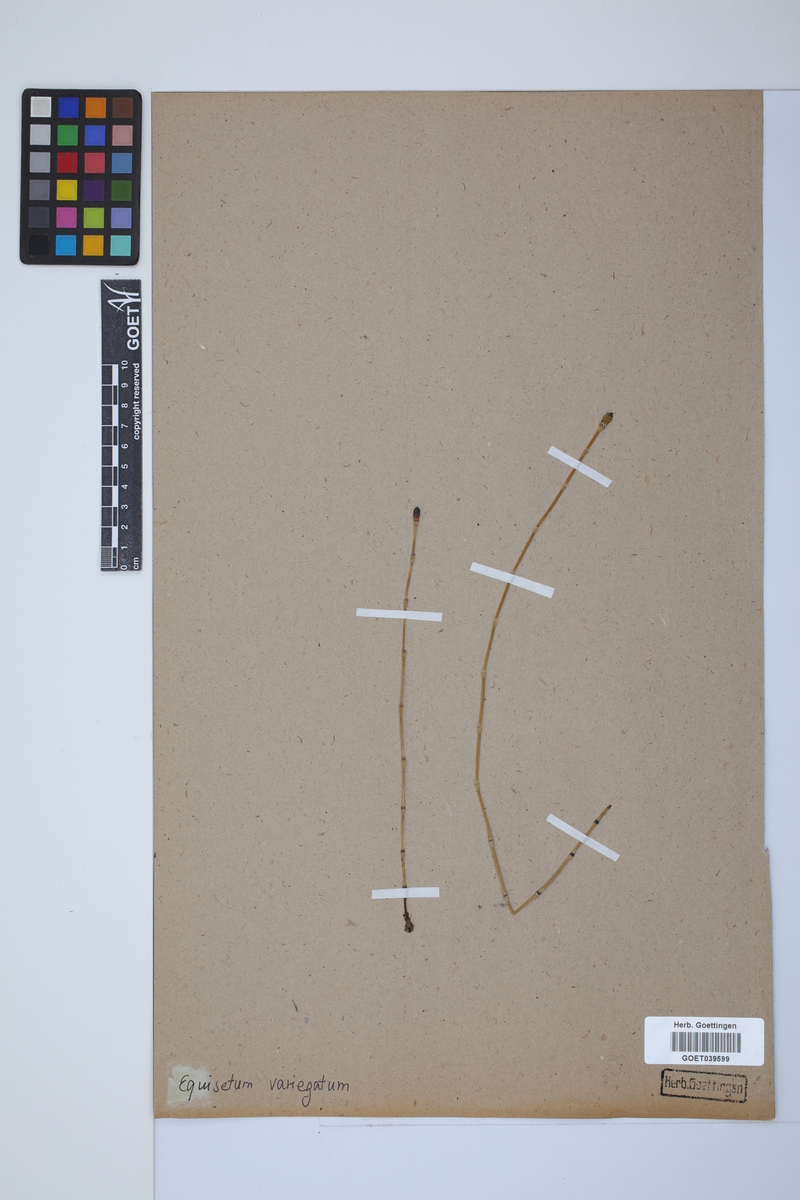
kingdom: Plantae
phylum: Tracheophyta
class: Polypodiopsida
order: Equisetales
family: Equisetaceae
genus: Equisetum
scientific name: Equisetum variegatum
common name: Variegated horsetail
